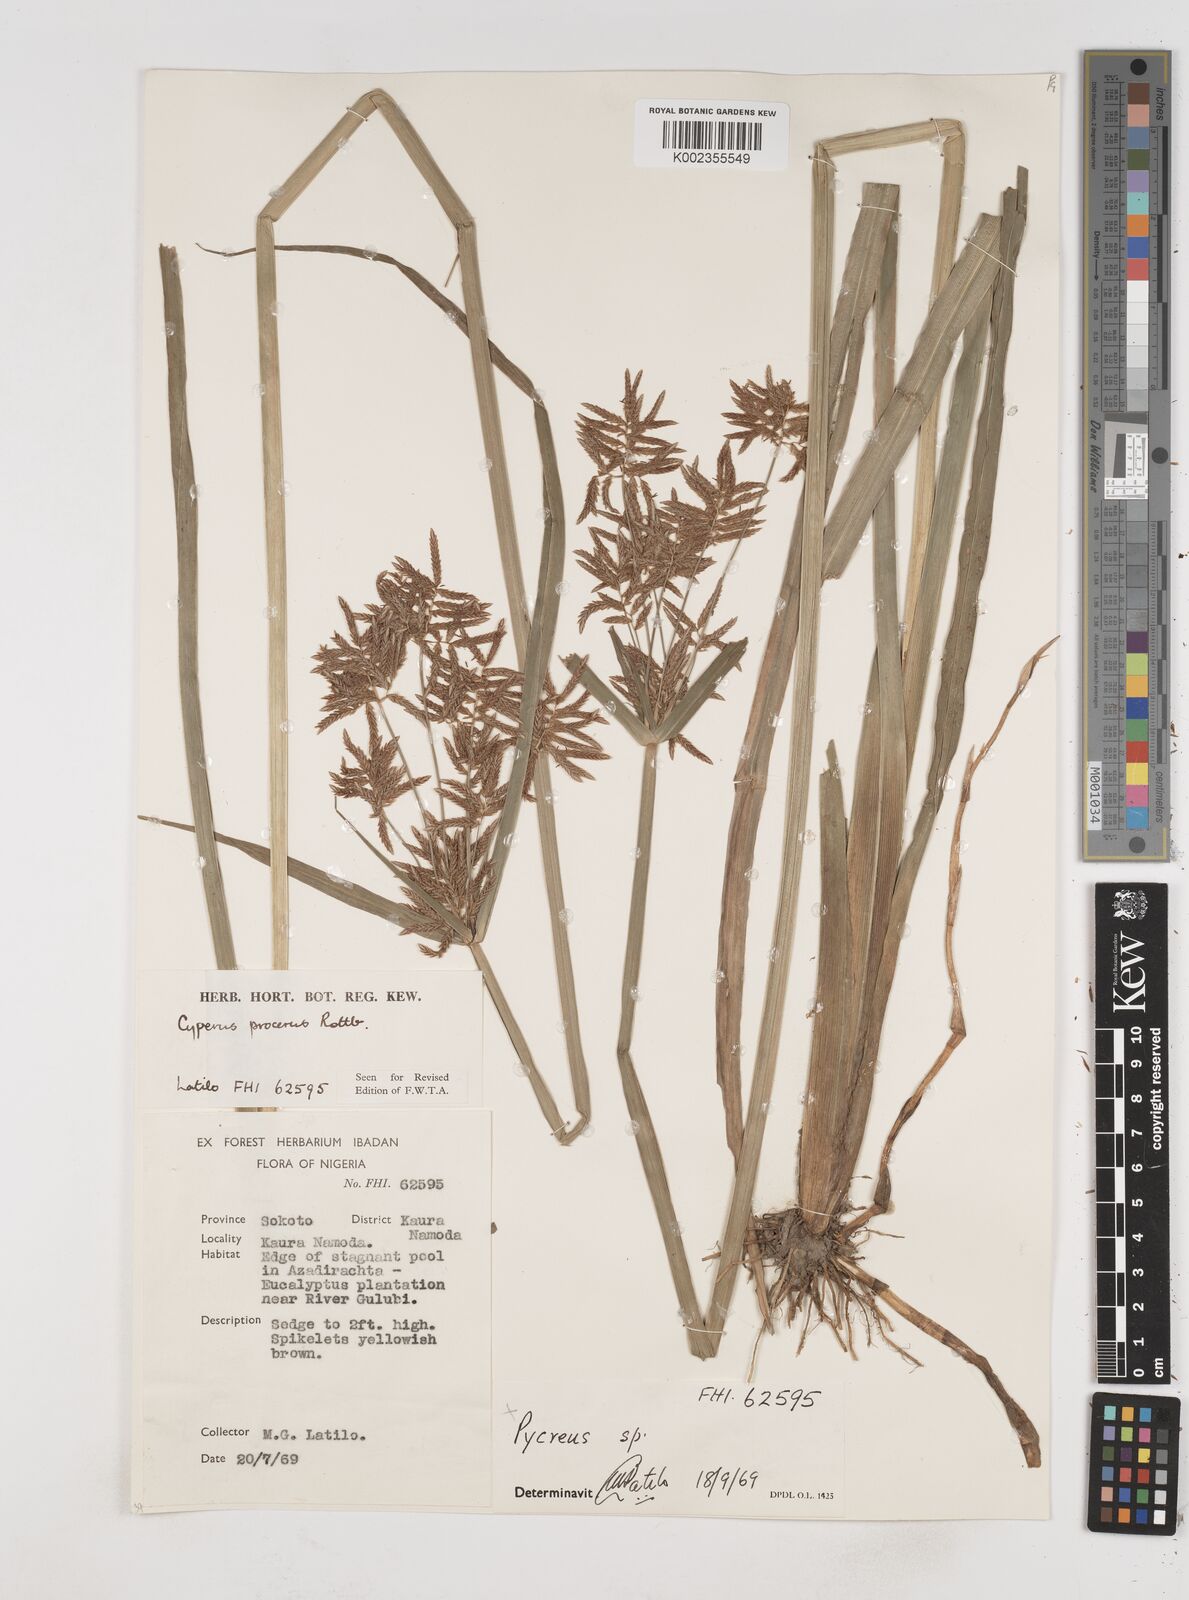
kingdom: Plantae
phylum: Tracheophyta
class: Liliopsida
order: Poales
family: Cyperaceae
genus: Cyperus
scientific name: Cyperus procerus
